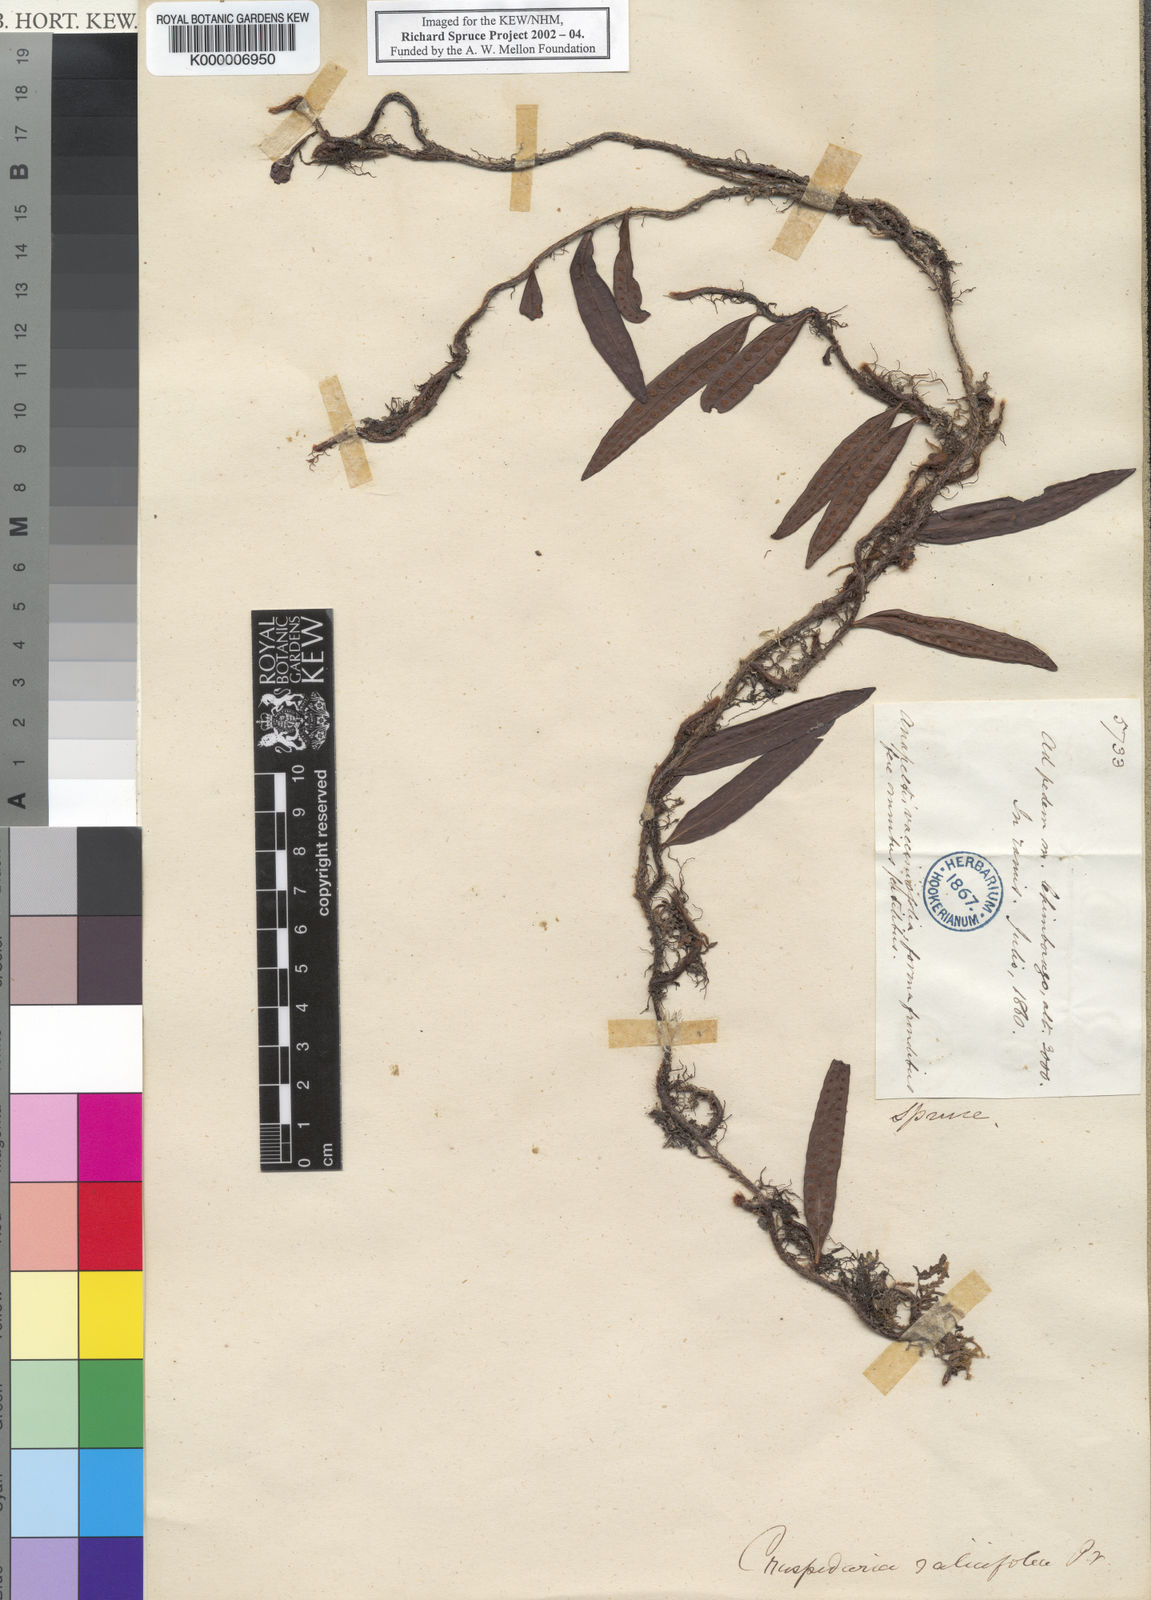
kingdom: Plantae
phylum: Tracheophyta
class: Polypodiopsida
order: Polypodiales
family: Polypodiaceae
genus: Microgramma
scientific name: Microgramma lycopodioides
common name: Bastard catclaw
